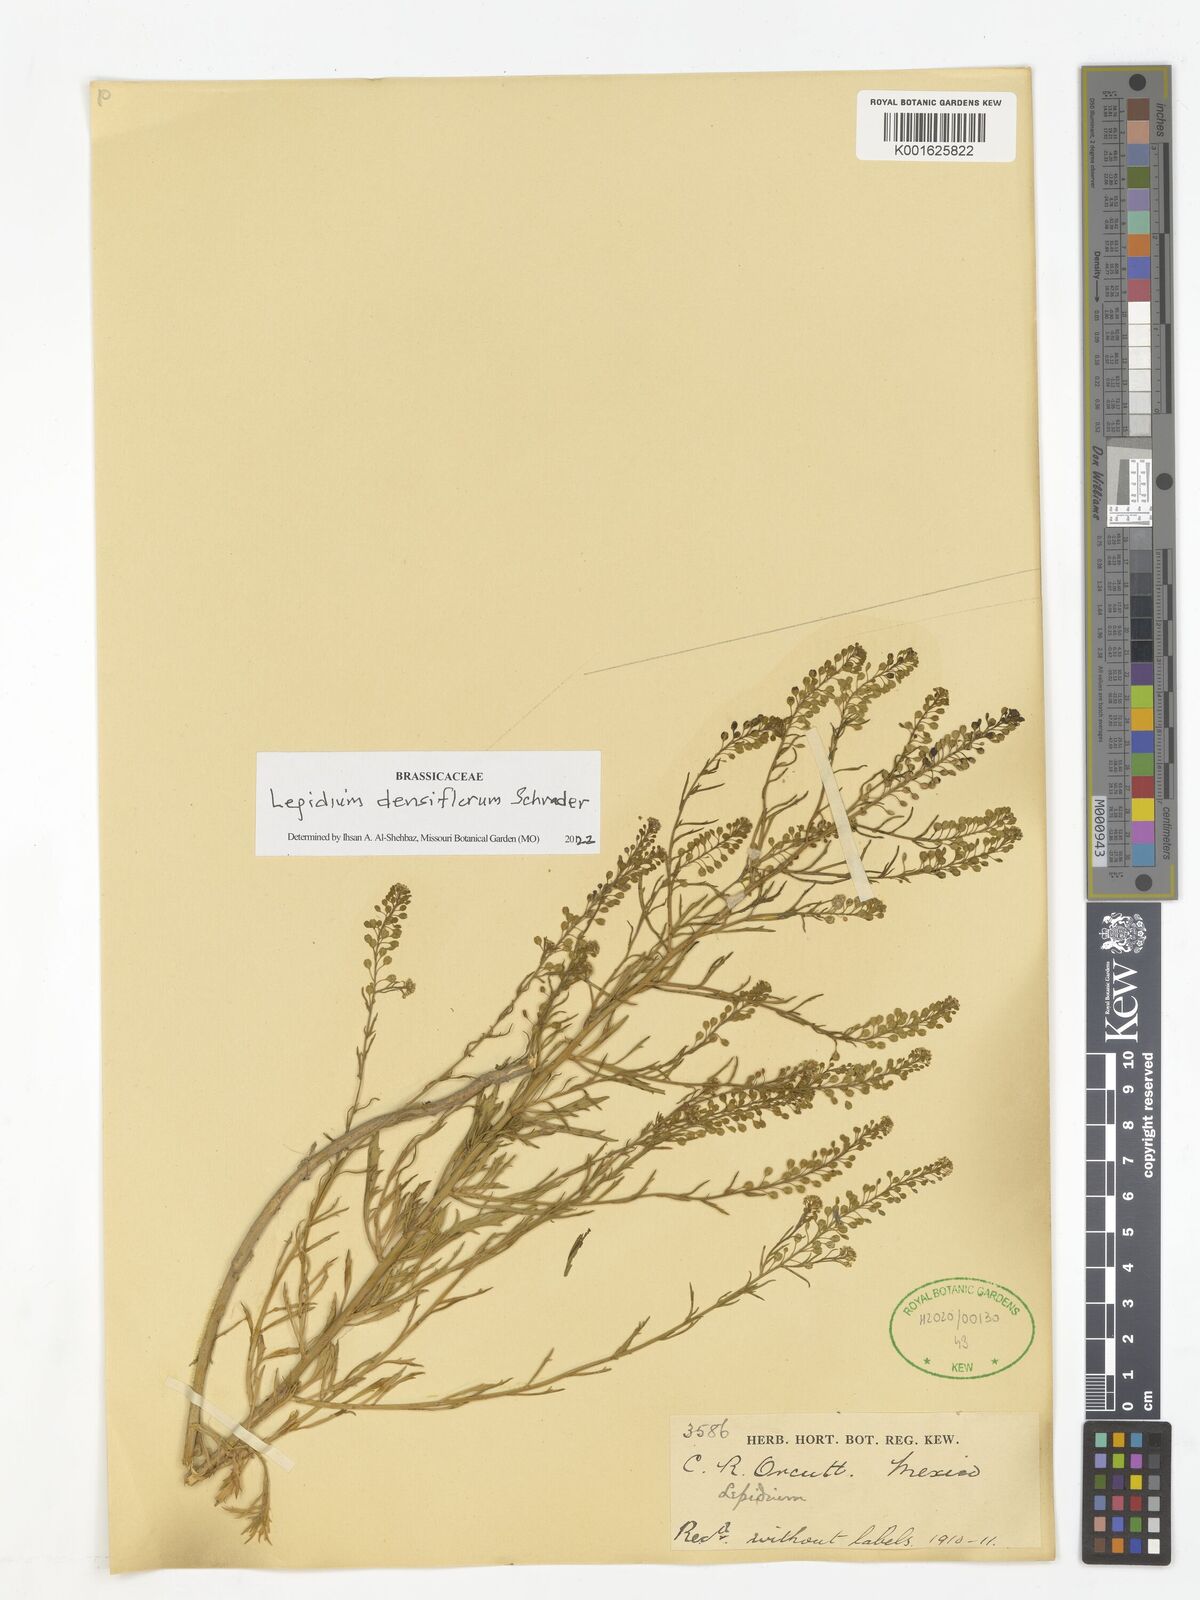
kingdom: Plantae
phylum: Tracheophyta
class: Magnoliopsida
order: Brassicales
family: Brassicaceae
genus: Lepidium
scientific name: Lepidium densiflorum
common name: Miner's pepperwort
